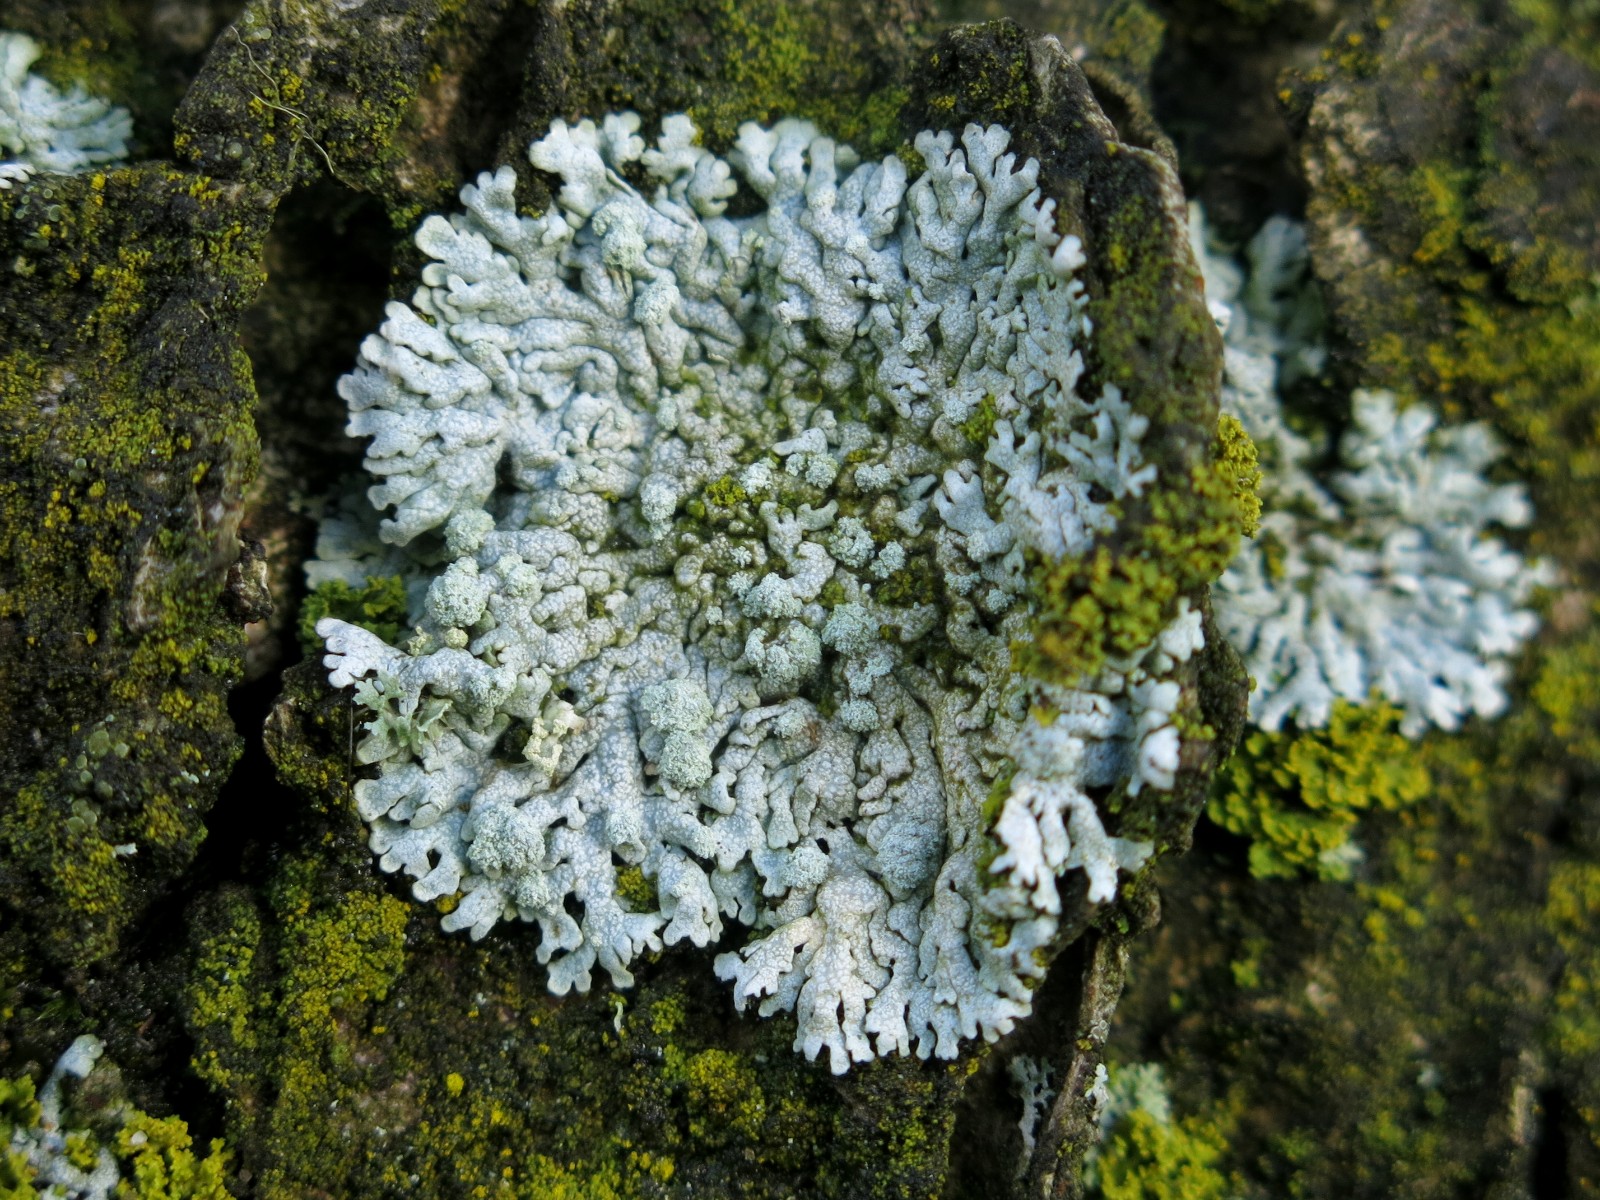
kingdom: Fungi
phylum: Ascomycota
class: Lecanoromycetes
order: Caliciales
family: Physciaceae
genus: Physcia
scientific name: Physcia caesia
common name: blågrå rosetlav
